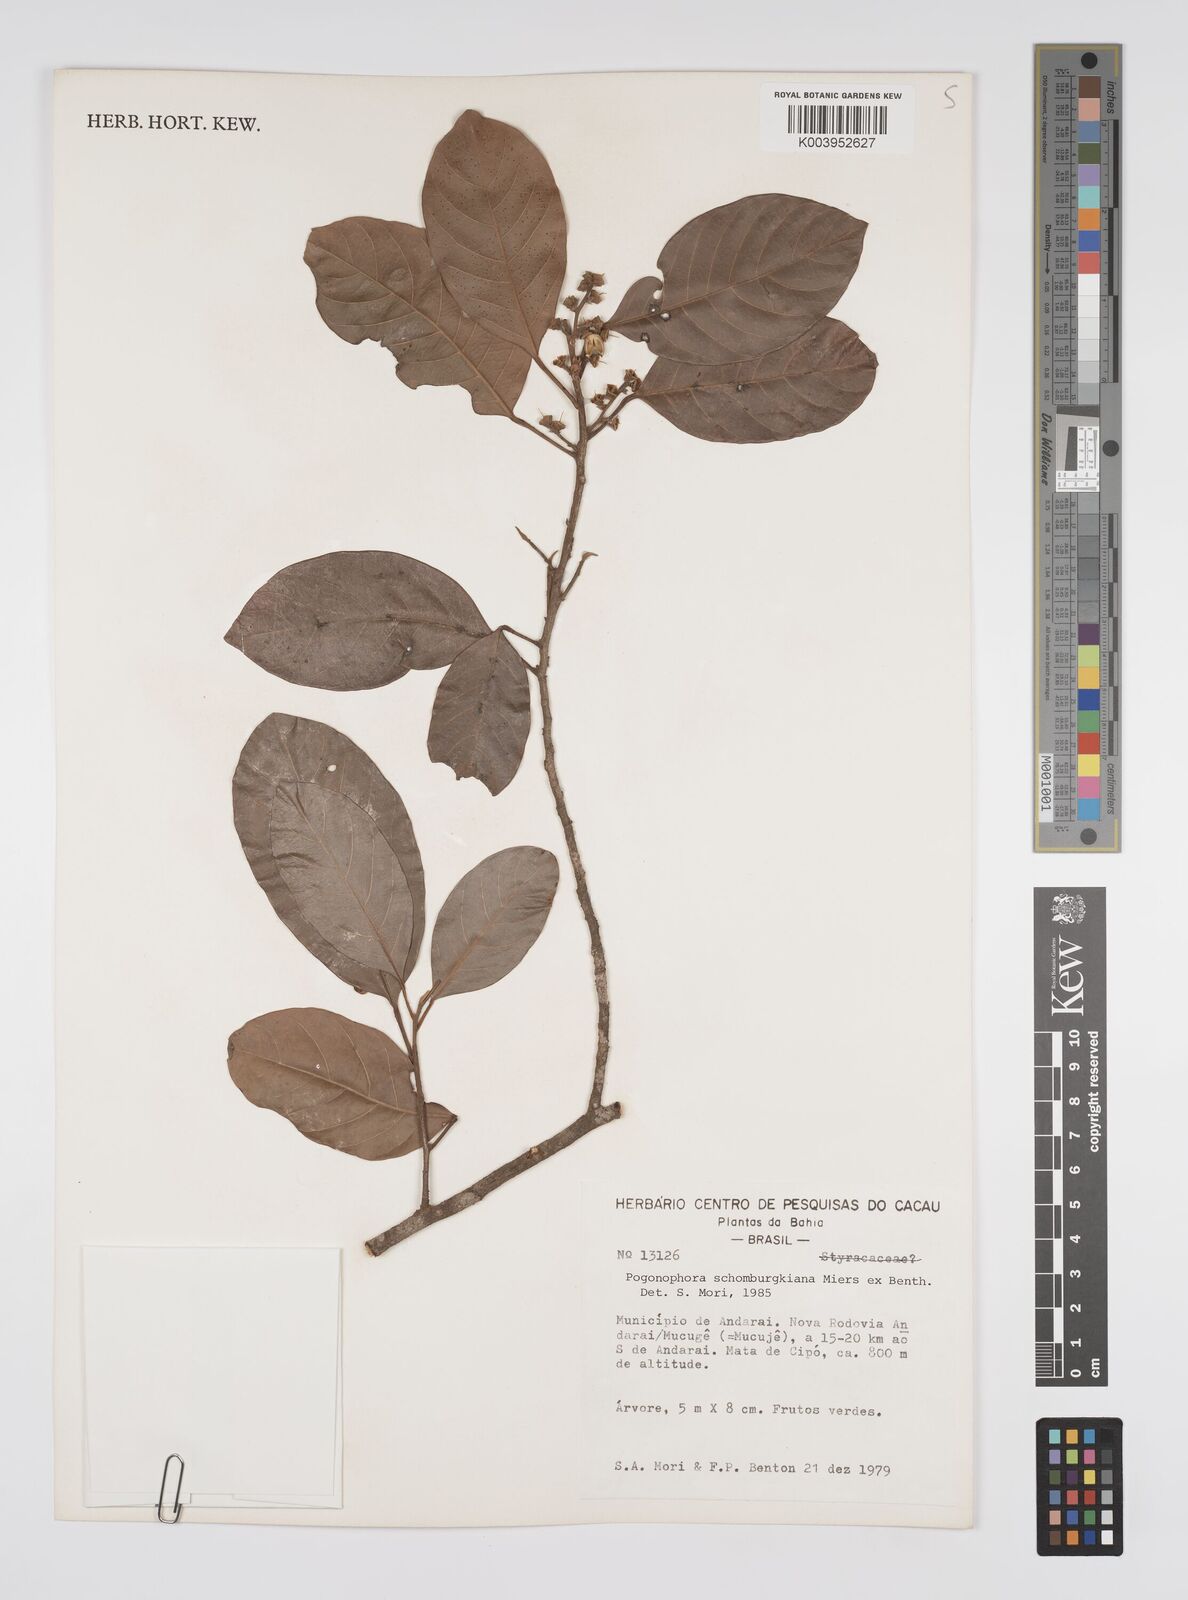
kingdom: Plantae
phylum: Tracheophyta
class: Magnoliopsida
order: Malpighiales
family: Peraceae
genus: Pogonophora
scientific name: Pogonophora schomburgkiana
